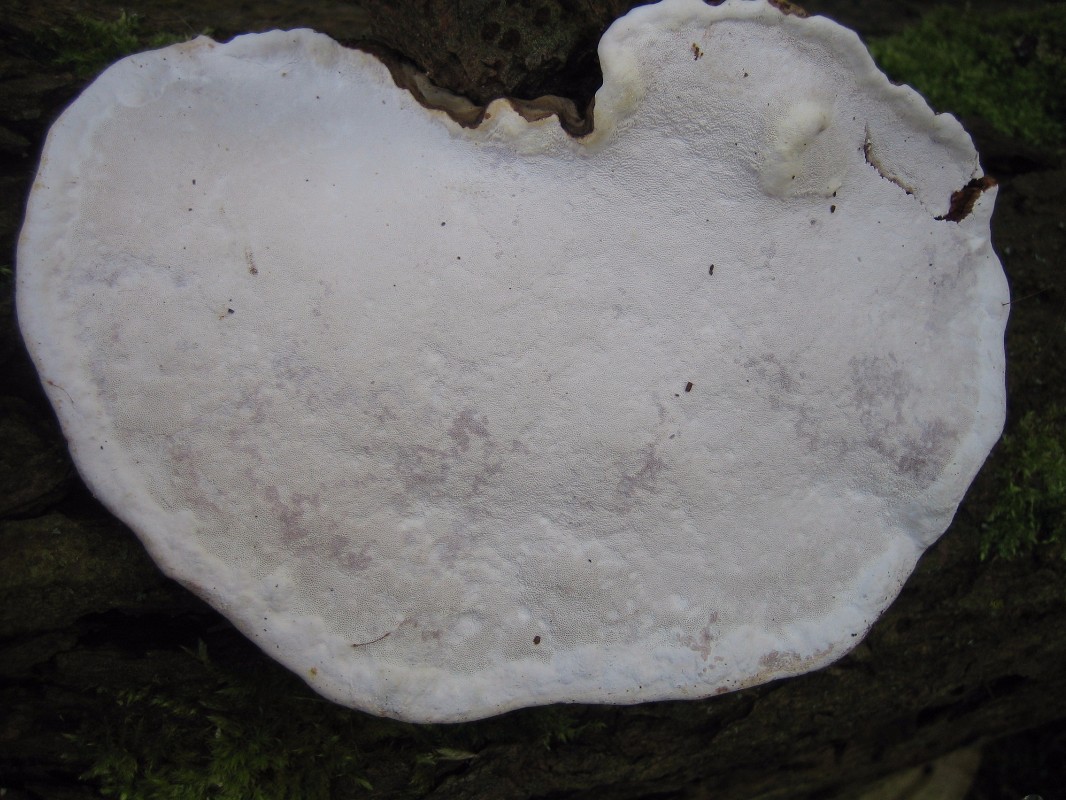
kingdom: Fungi
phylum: Basidiomycota
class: Agaricomycetes
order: Polyporales
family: Polyporaceae
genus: Fomes
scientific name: Fomes fomentarius
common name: tøndersvamp
